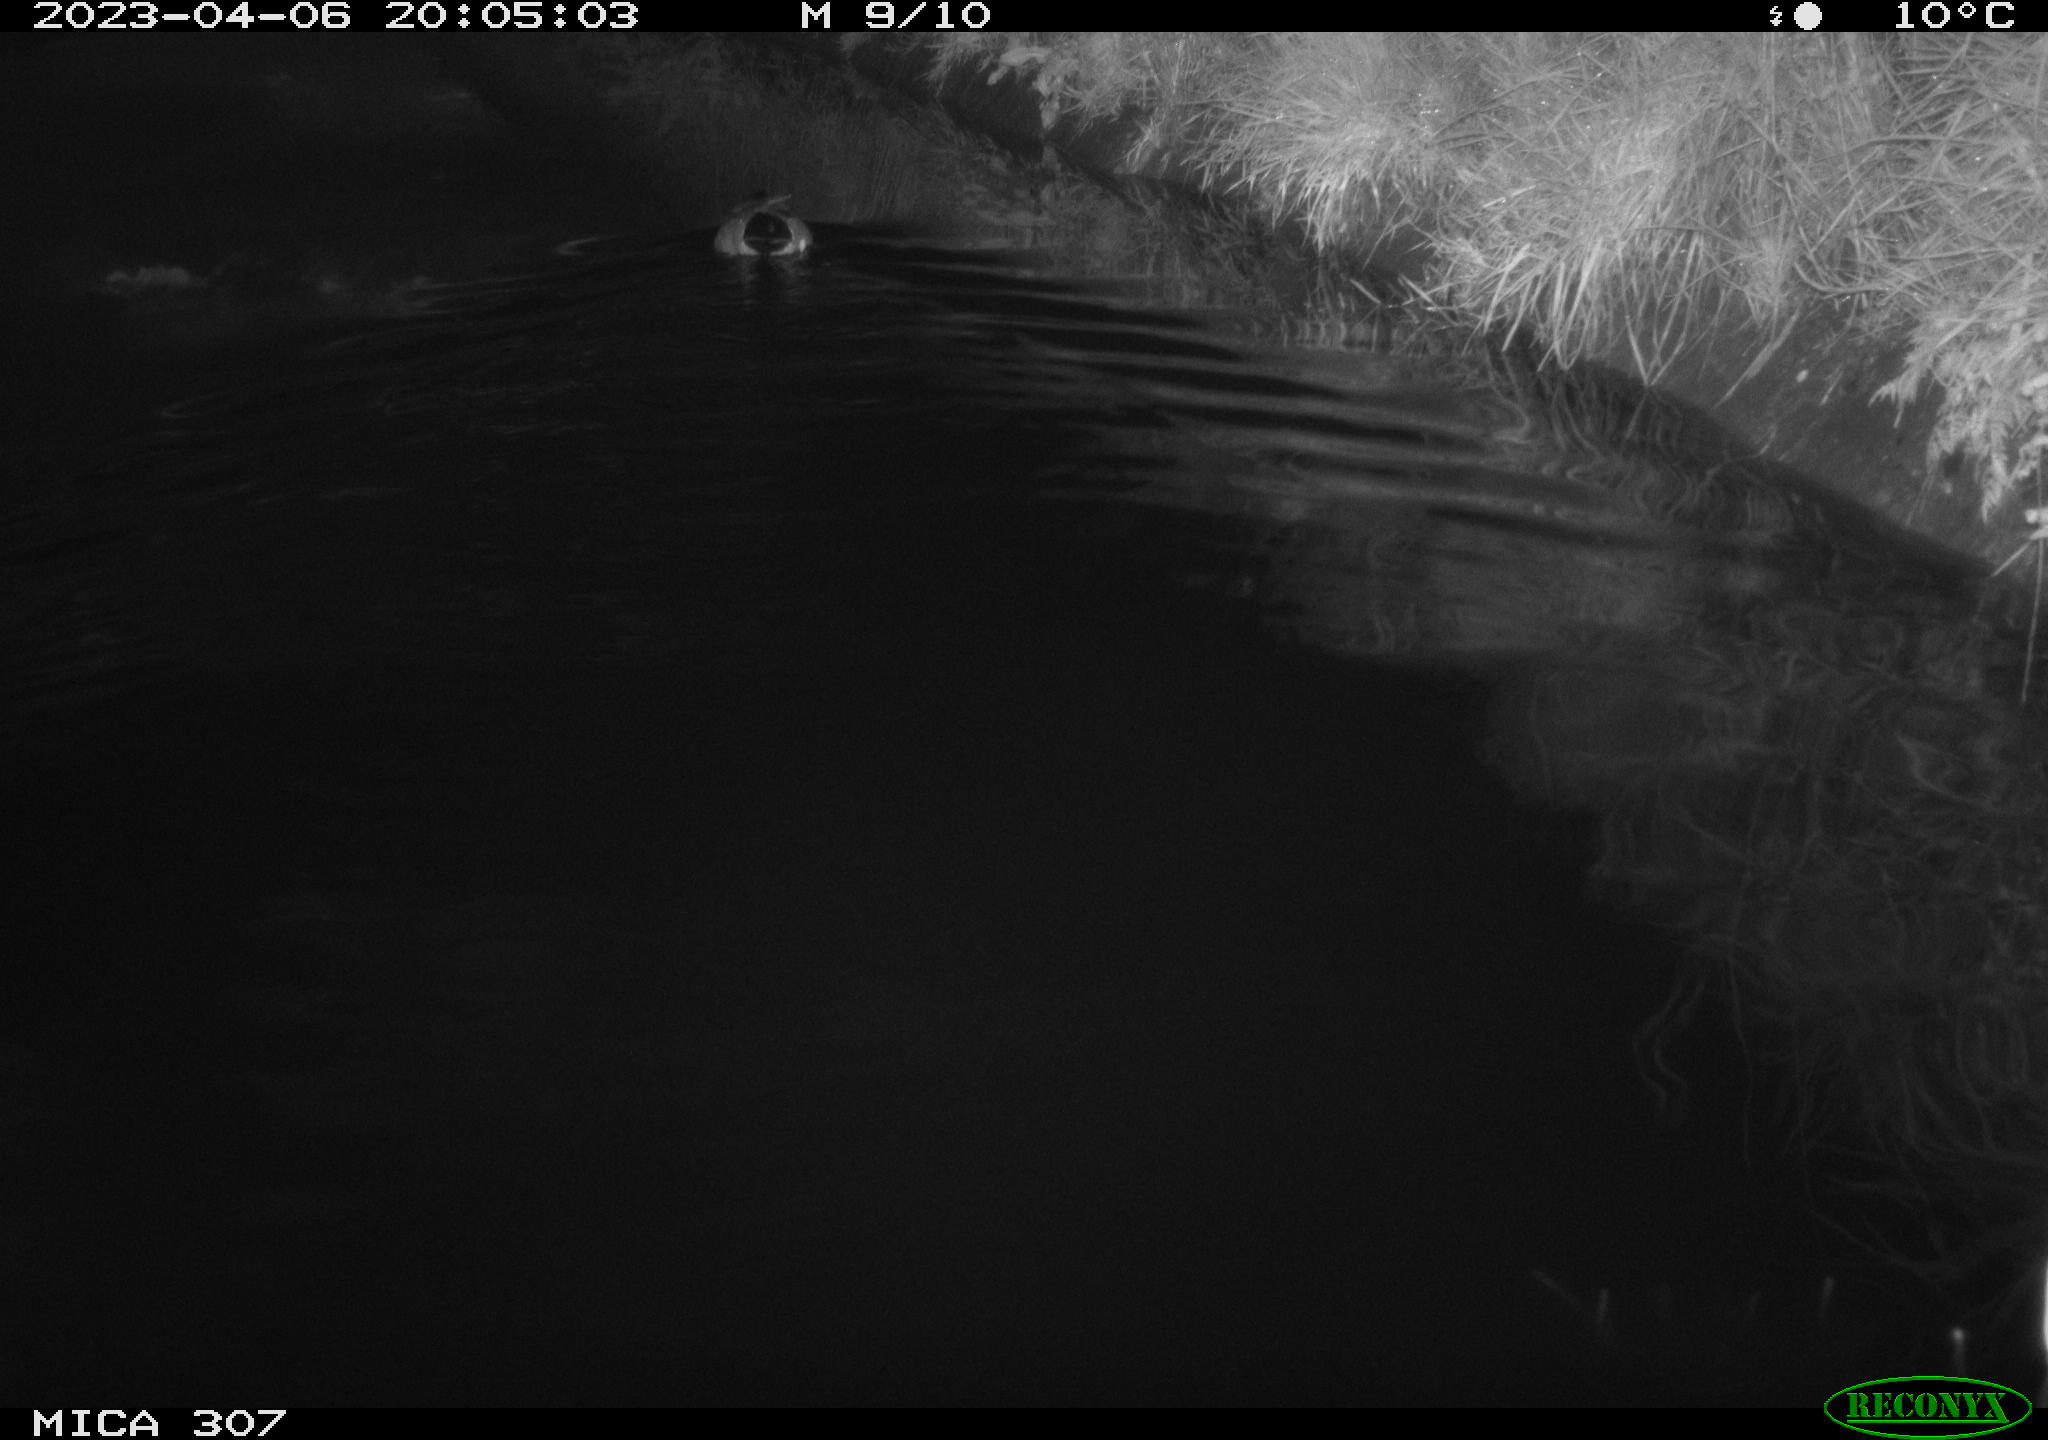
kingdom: Animalia
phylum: Chordata
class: Aves
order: Anseriformes
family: Anatidae
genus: Anas
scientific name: Anas
